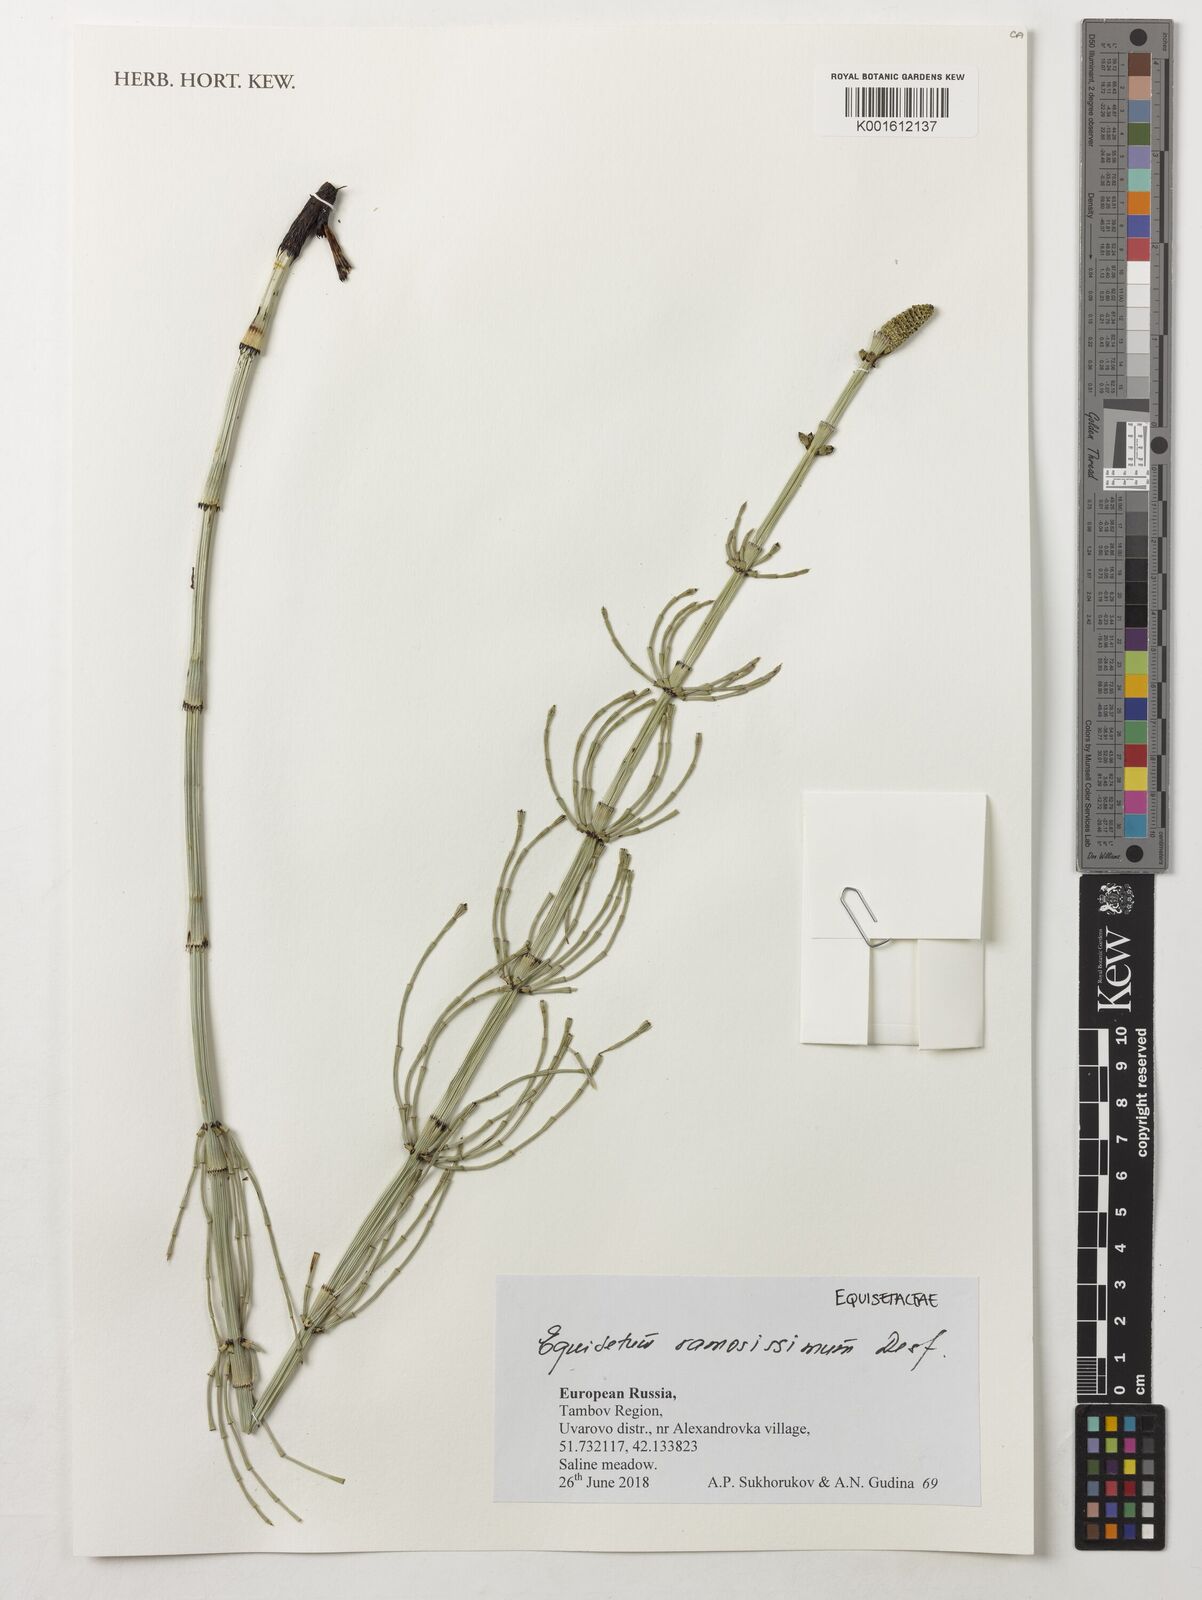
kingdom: Plantae
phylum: Tracheophyta
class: Polypodiopsida
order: Equisetales
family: Equisetaceae
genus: Equisetum
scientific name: Equisetum ramosissimum
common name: Branched horsetail
